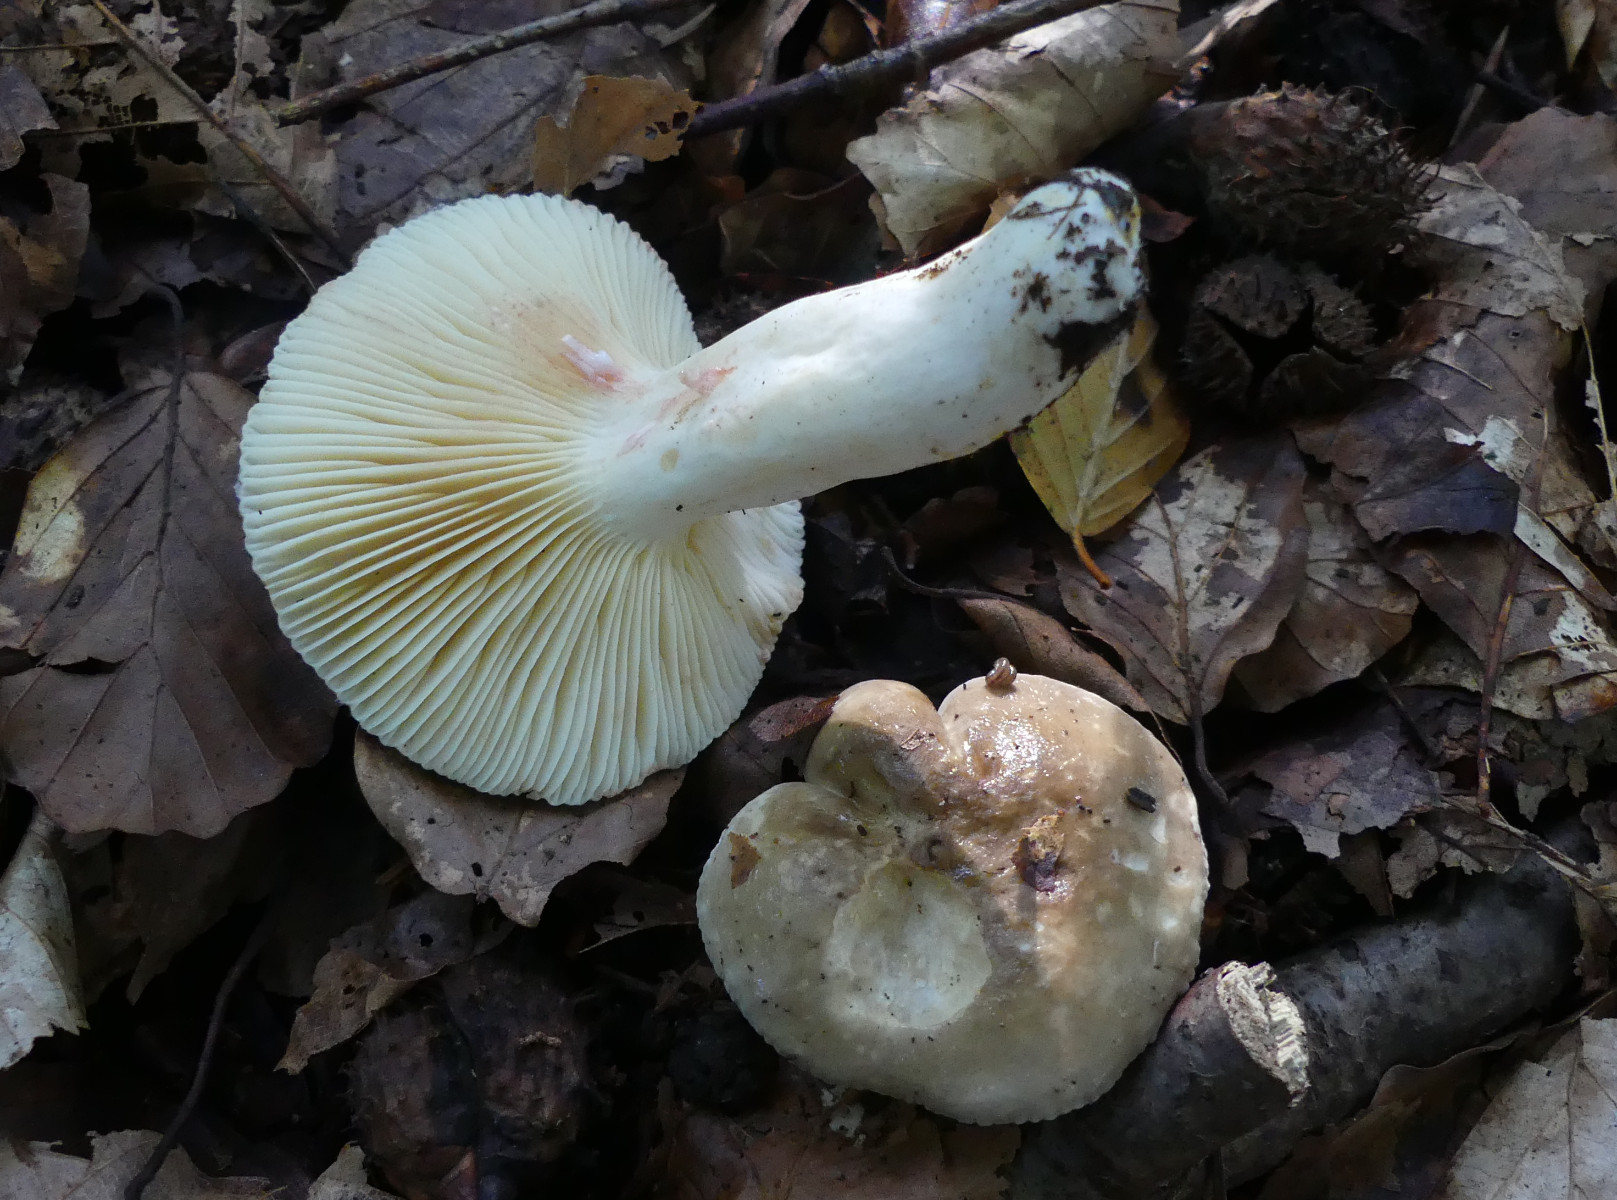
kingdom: Fungi
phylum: Basidiomycota
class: Agaricomycetes
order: Russulales
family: Russulaceae
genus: Lactarius
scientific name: Lactarius acris
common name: rosamælket mælkehat
